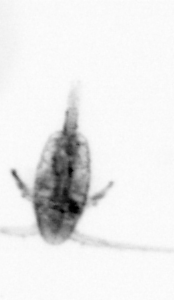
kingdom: Animalia
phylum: Arthropoda
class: Copepoda
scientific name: Copepoda
